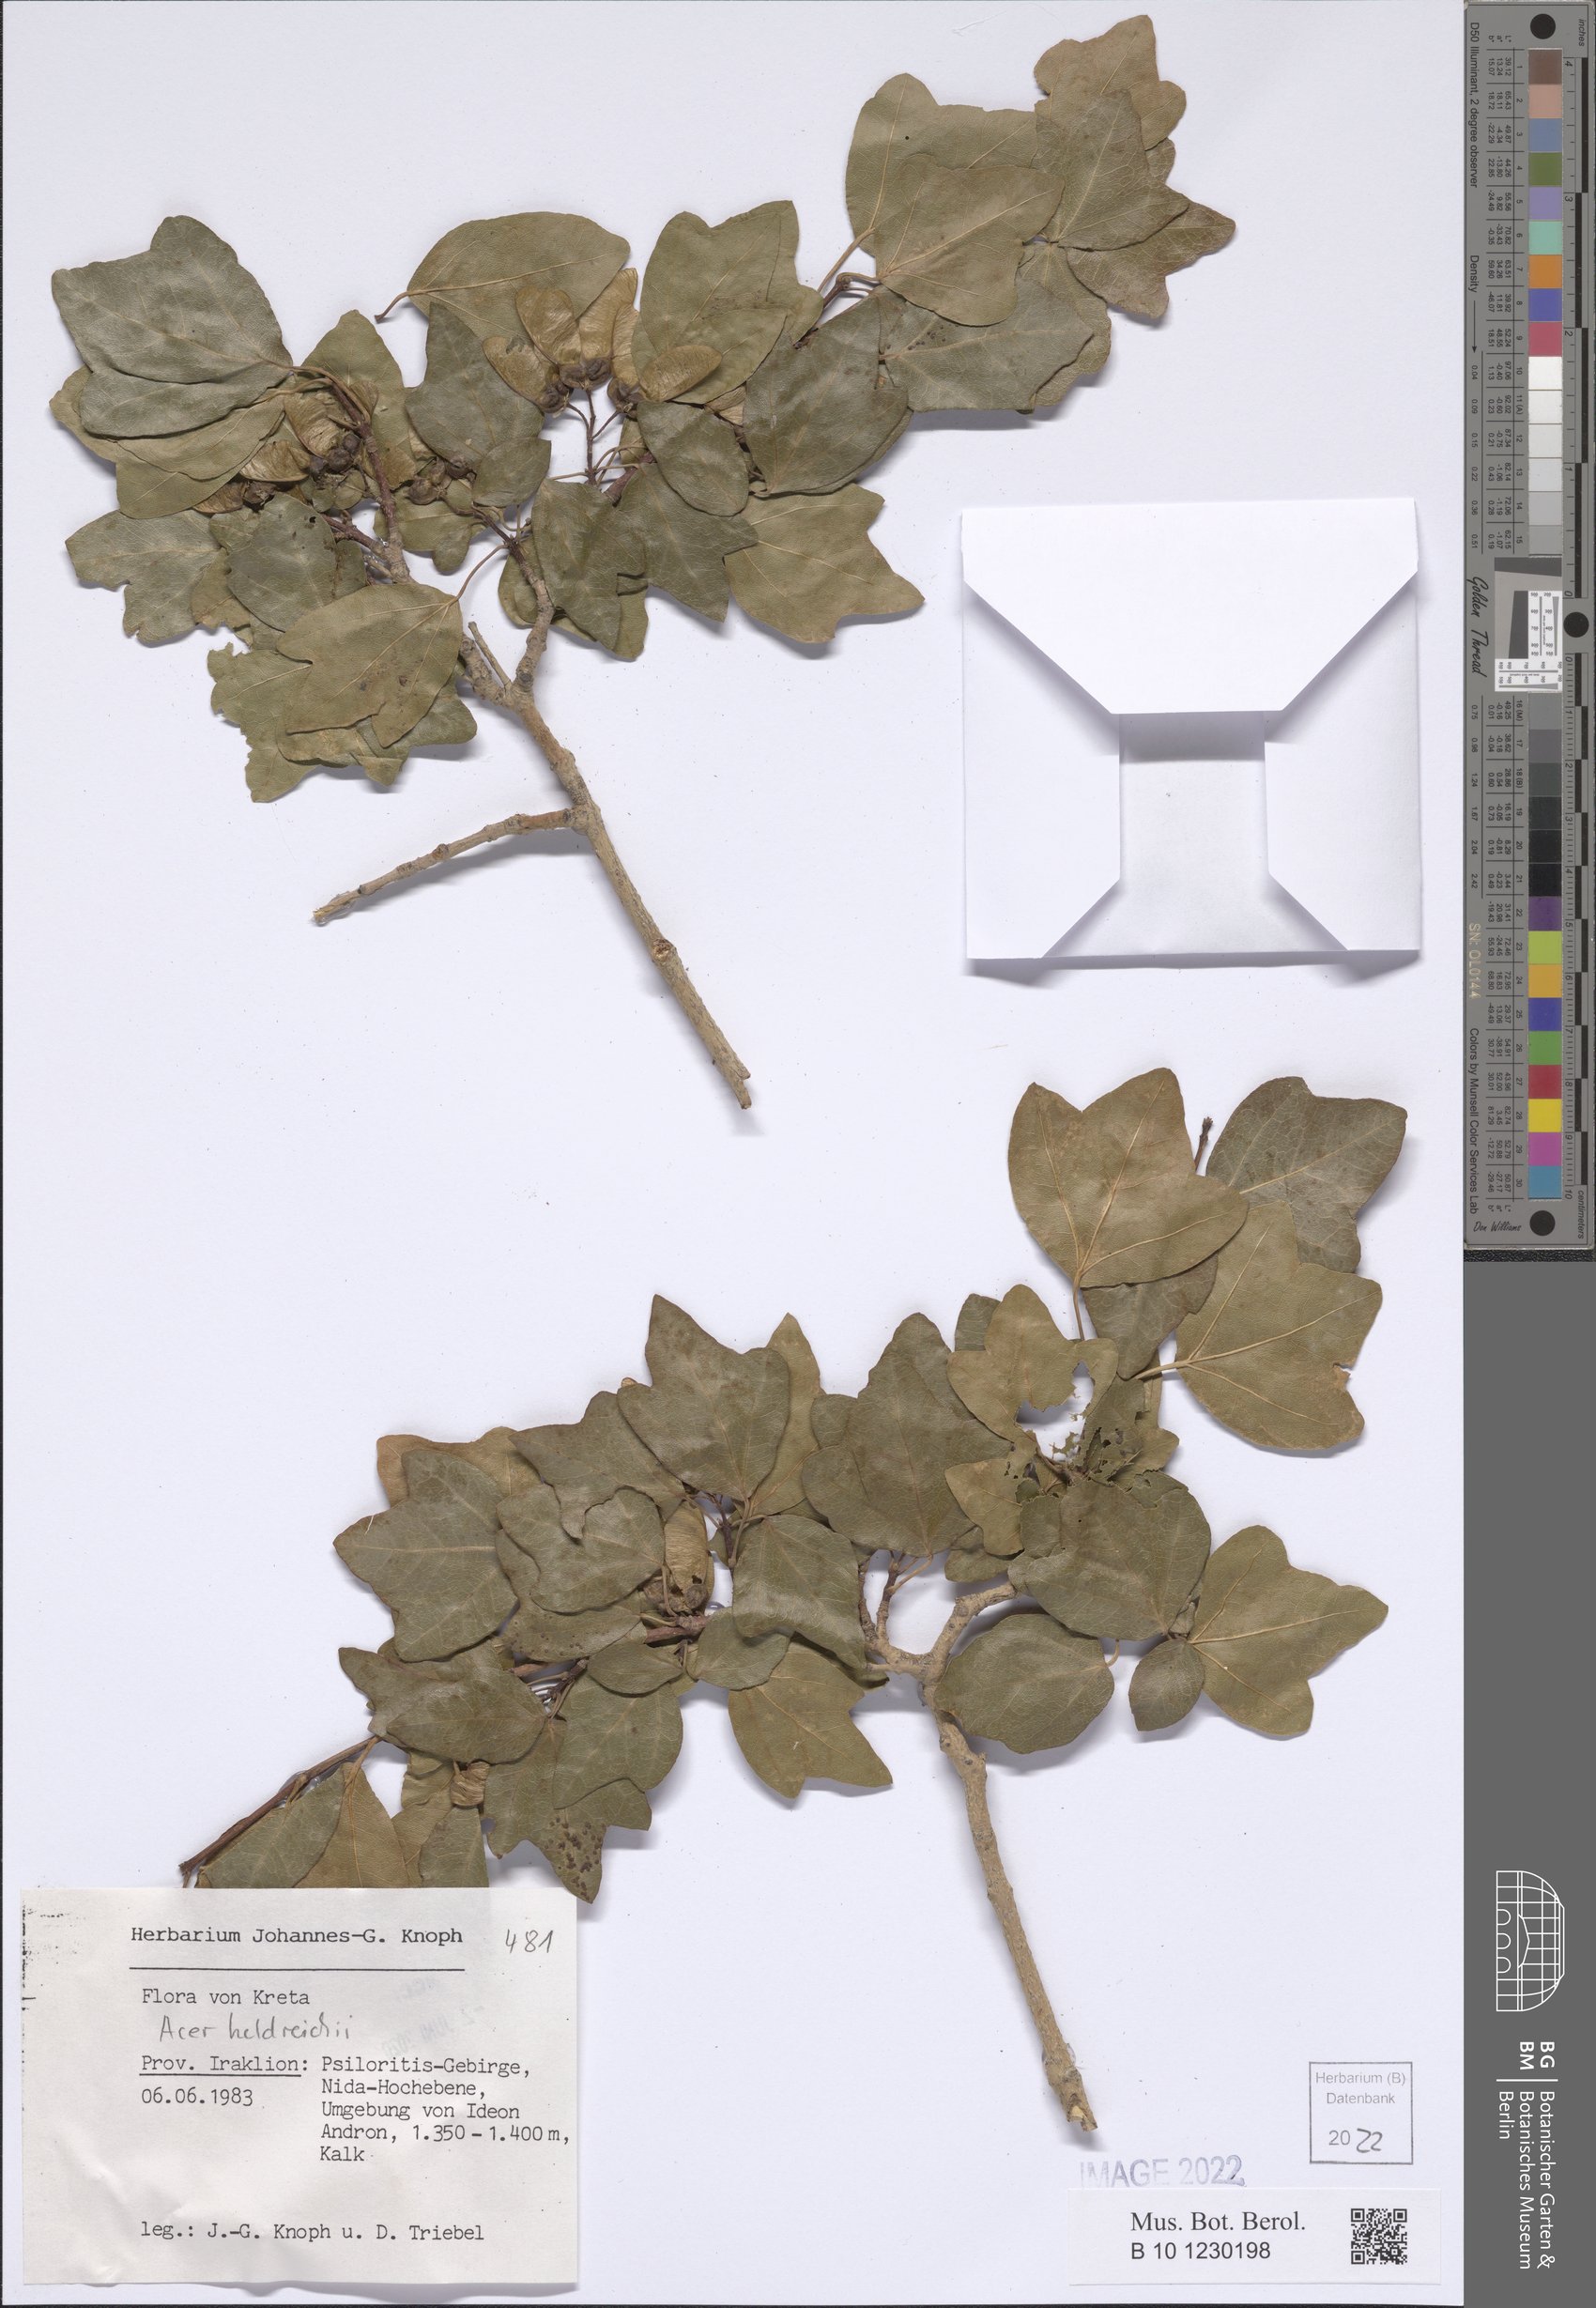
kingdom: Plantae
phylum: Tracheophyta
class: Magnoliopsida
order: Sapindales
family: Sapindaceae
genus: Acer
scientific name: Acer heldreichii
